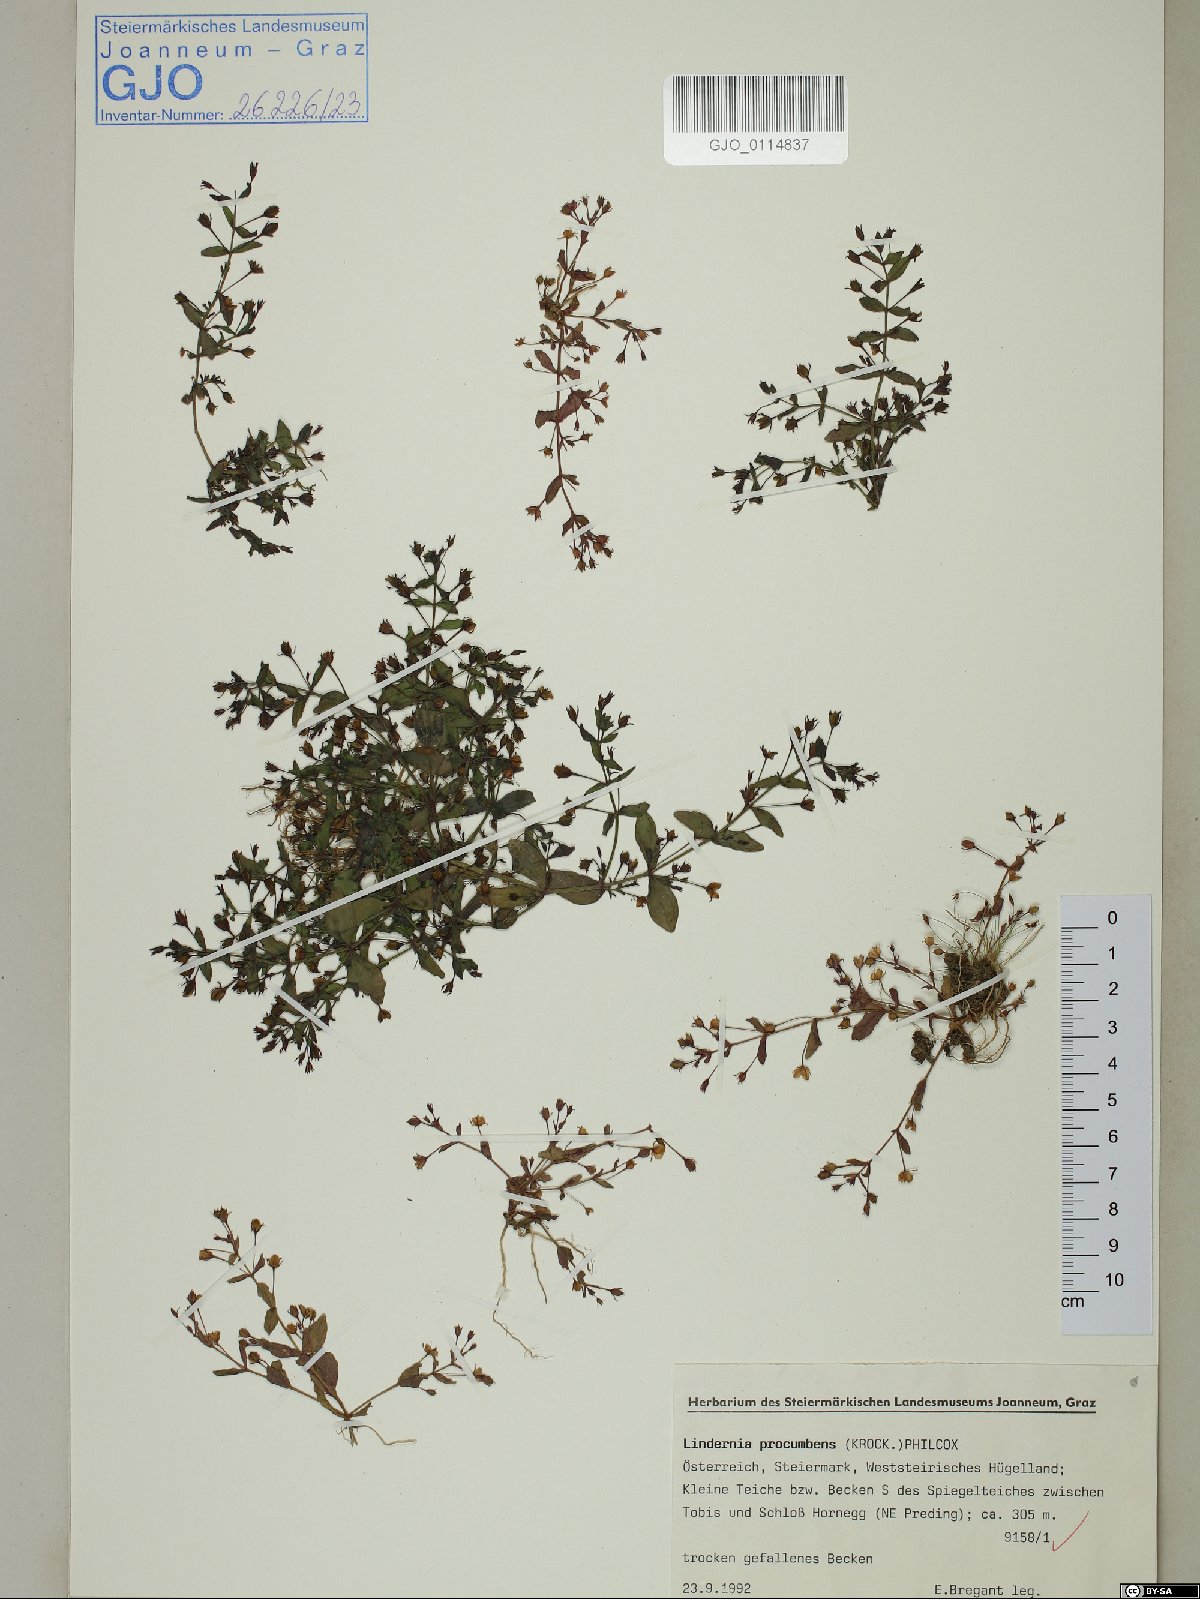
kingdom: Plantae
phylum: Tracheophyta
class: Magnoliopsida
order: Lamiales
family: Linderniaceae
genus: Lindernia
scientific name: Lindernia procumbens
